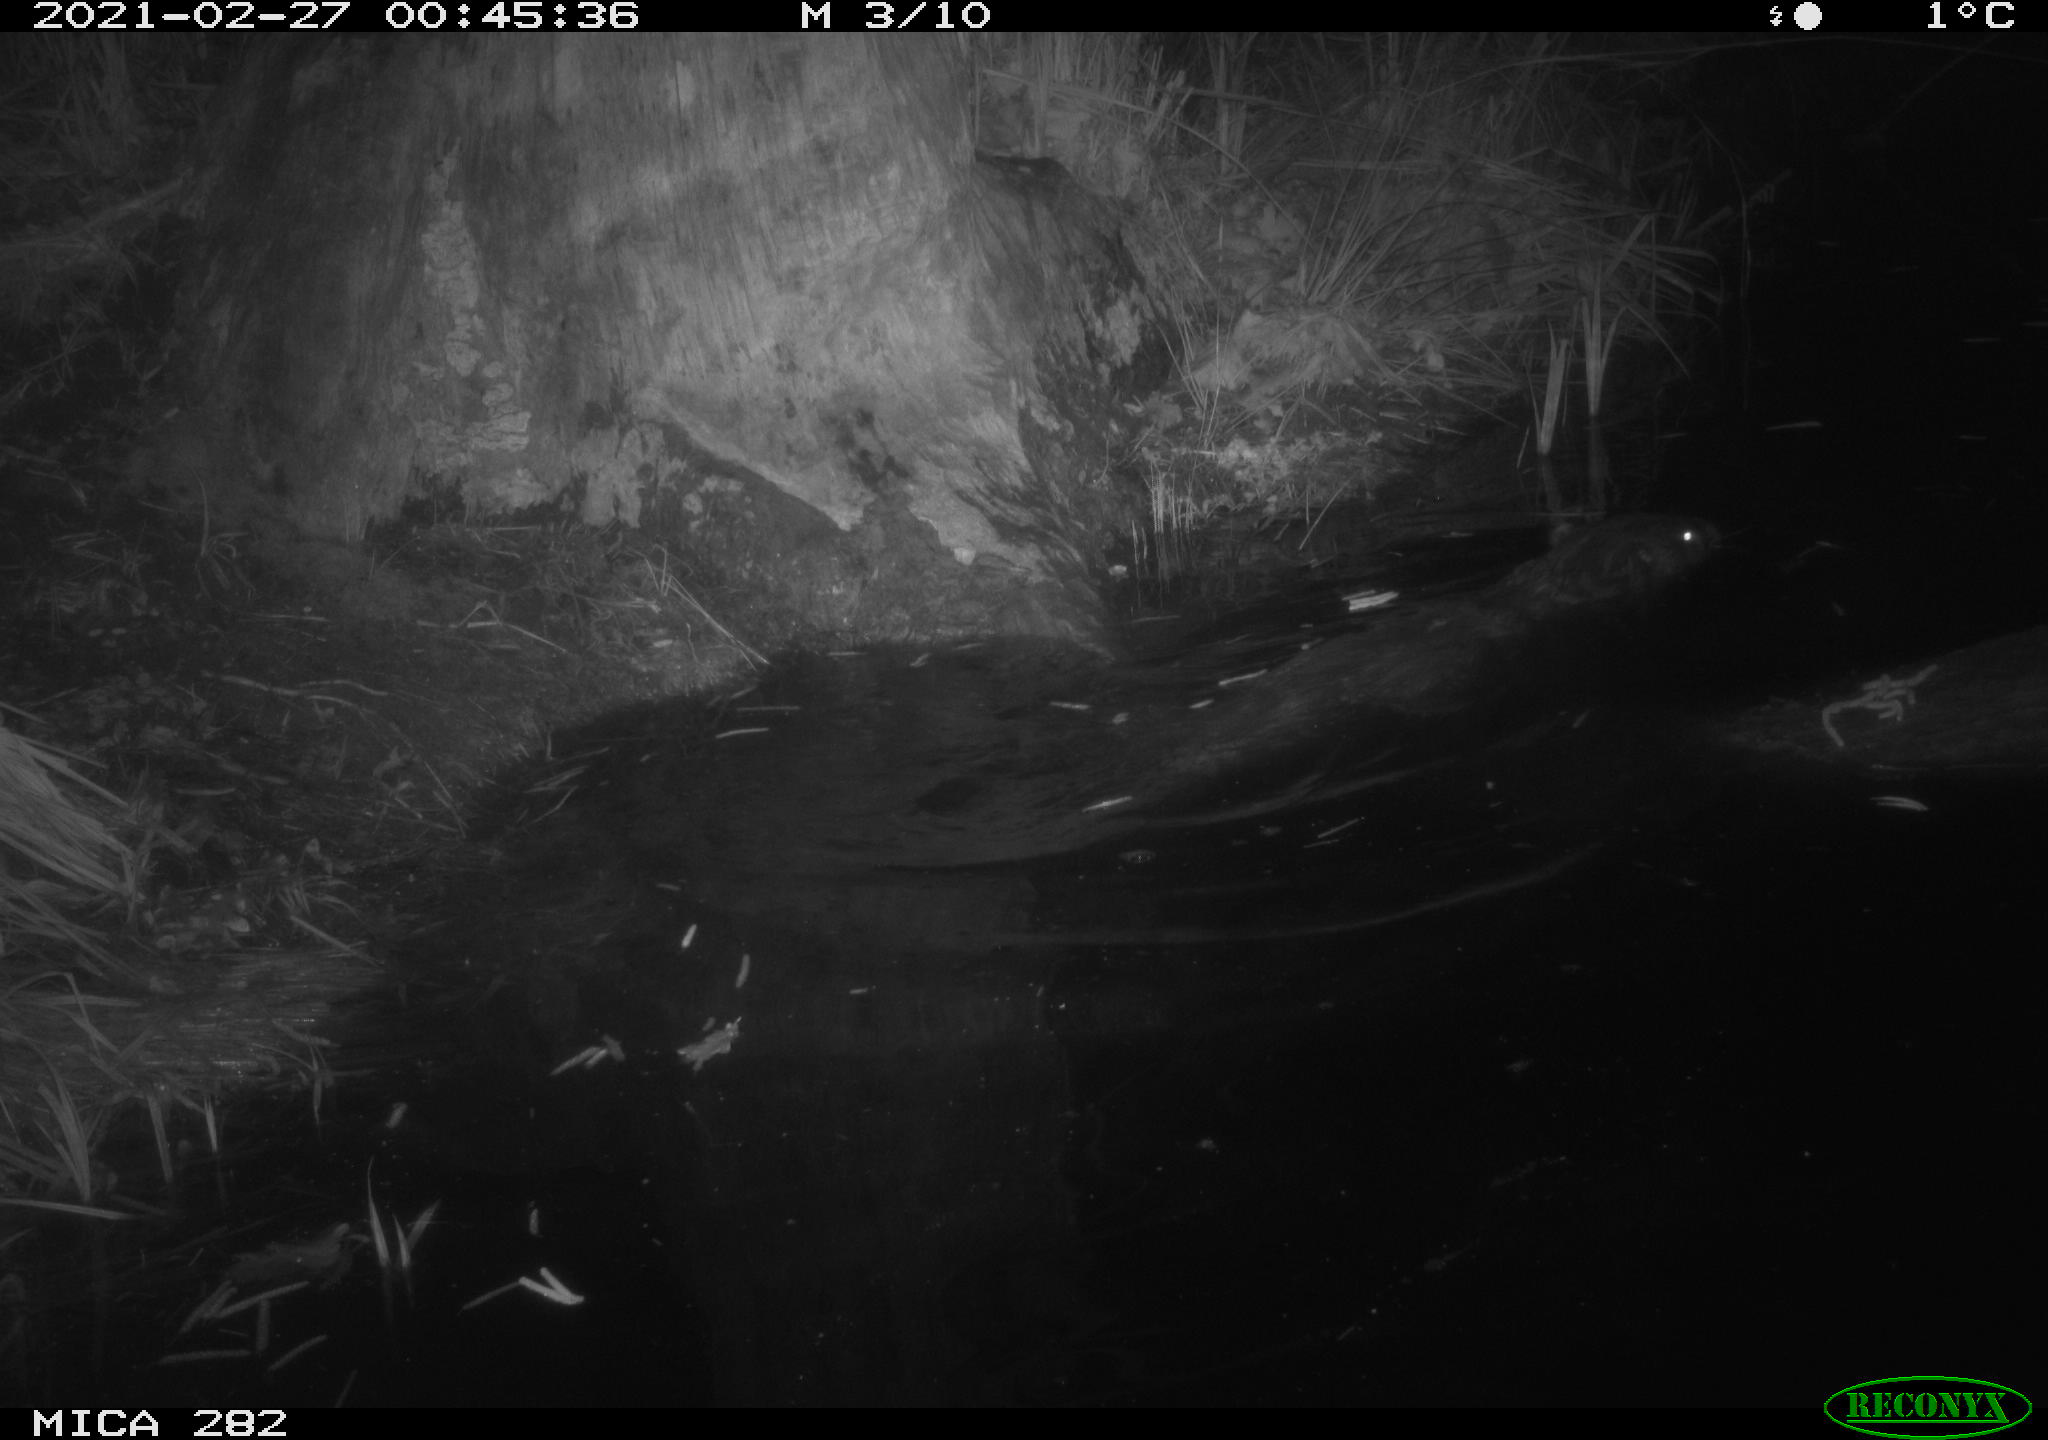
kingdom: Animalia
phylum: Chordata
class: Mammalia
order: Rodentia
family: Castoridae
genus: Castor
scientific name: Castor fiber
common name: Eurasian beaver
